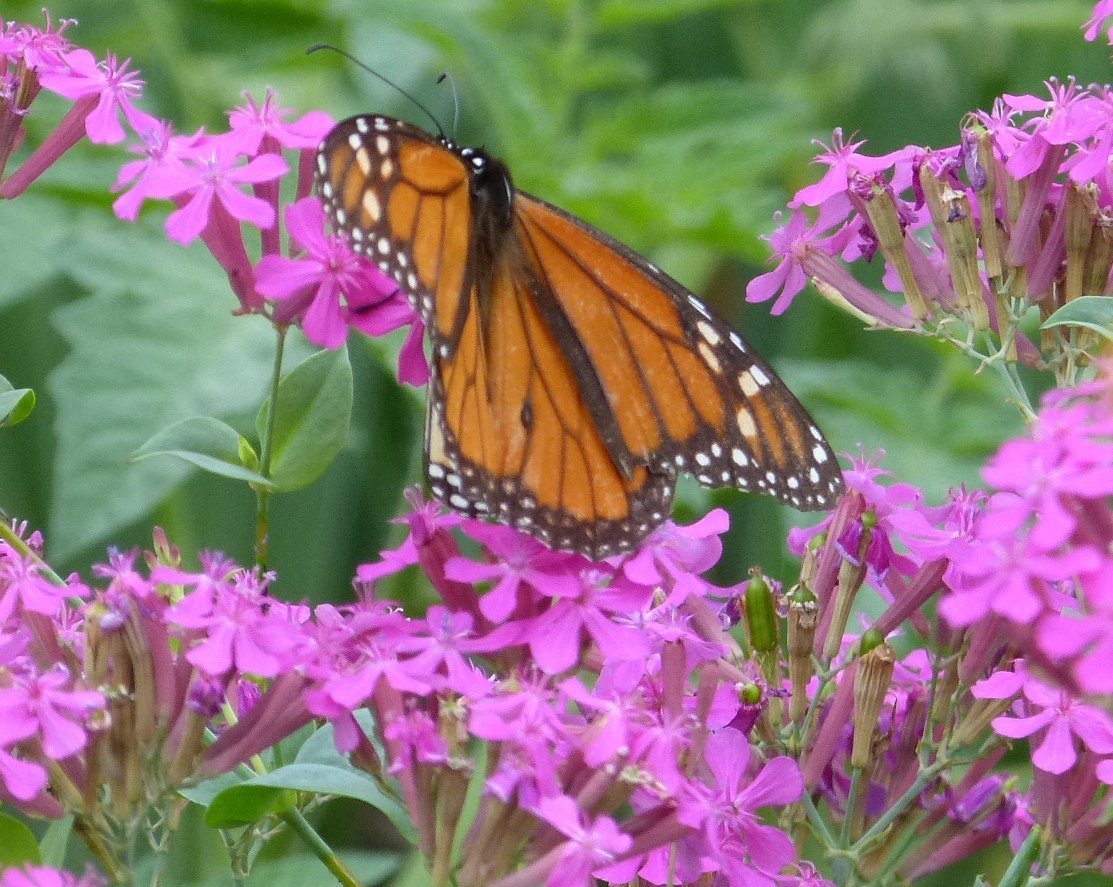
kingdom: Animalia
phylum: Arthropoda
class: Insecta
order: Lepidoptera
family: Nymphalidae
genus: Danaus
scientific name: Danaus plexippus
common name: Monarch
